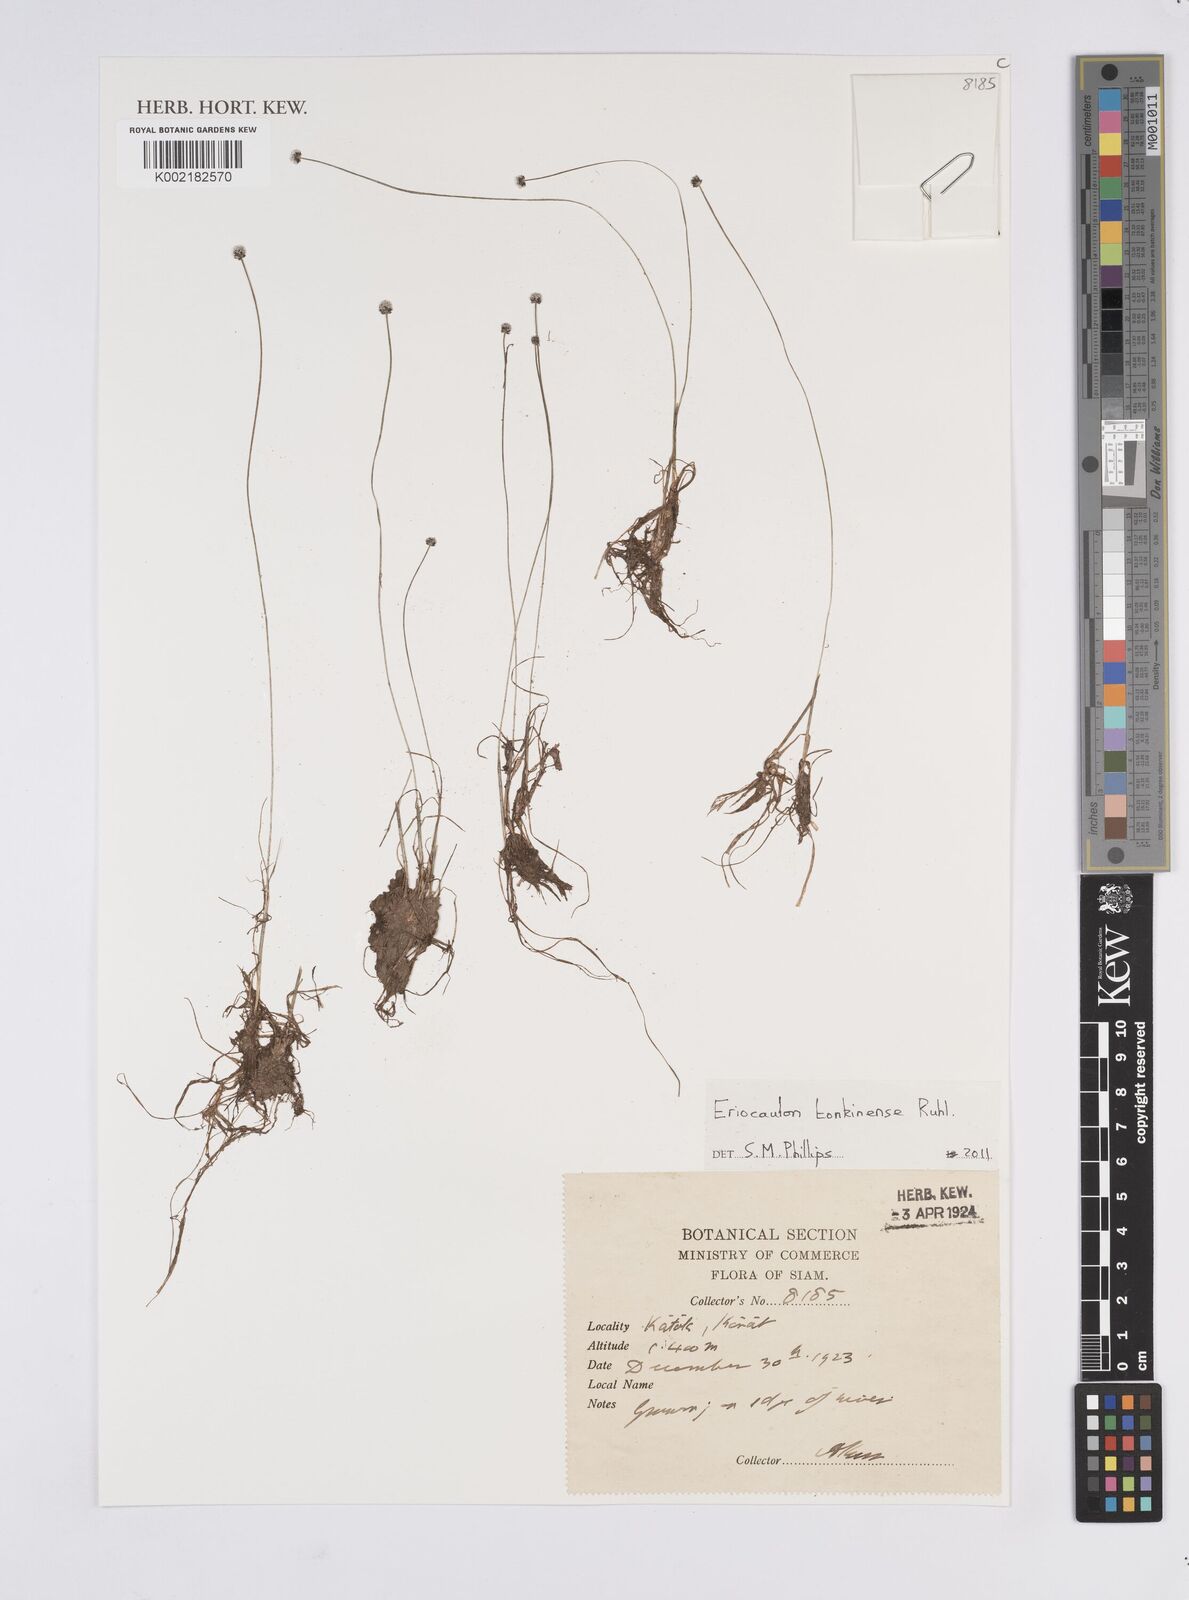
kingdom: Plantae
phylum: Tracheophyta
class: Liliopsida
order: Poales
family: Eriocaulaceae
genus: Eriocaulon
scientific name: Eriocaulon fluviatile
